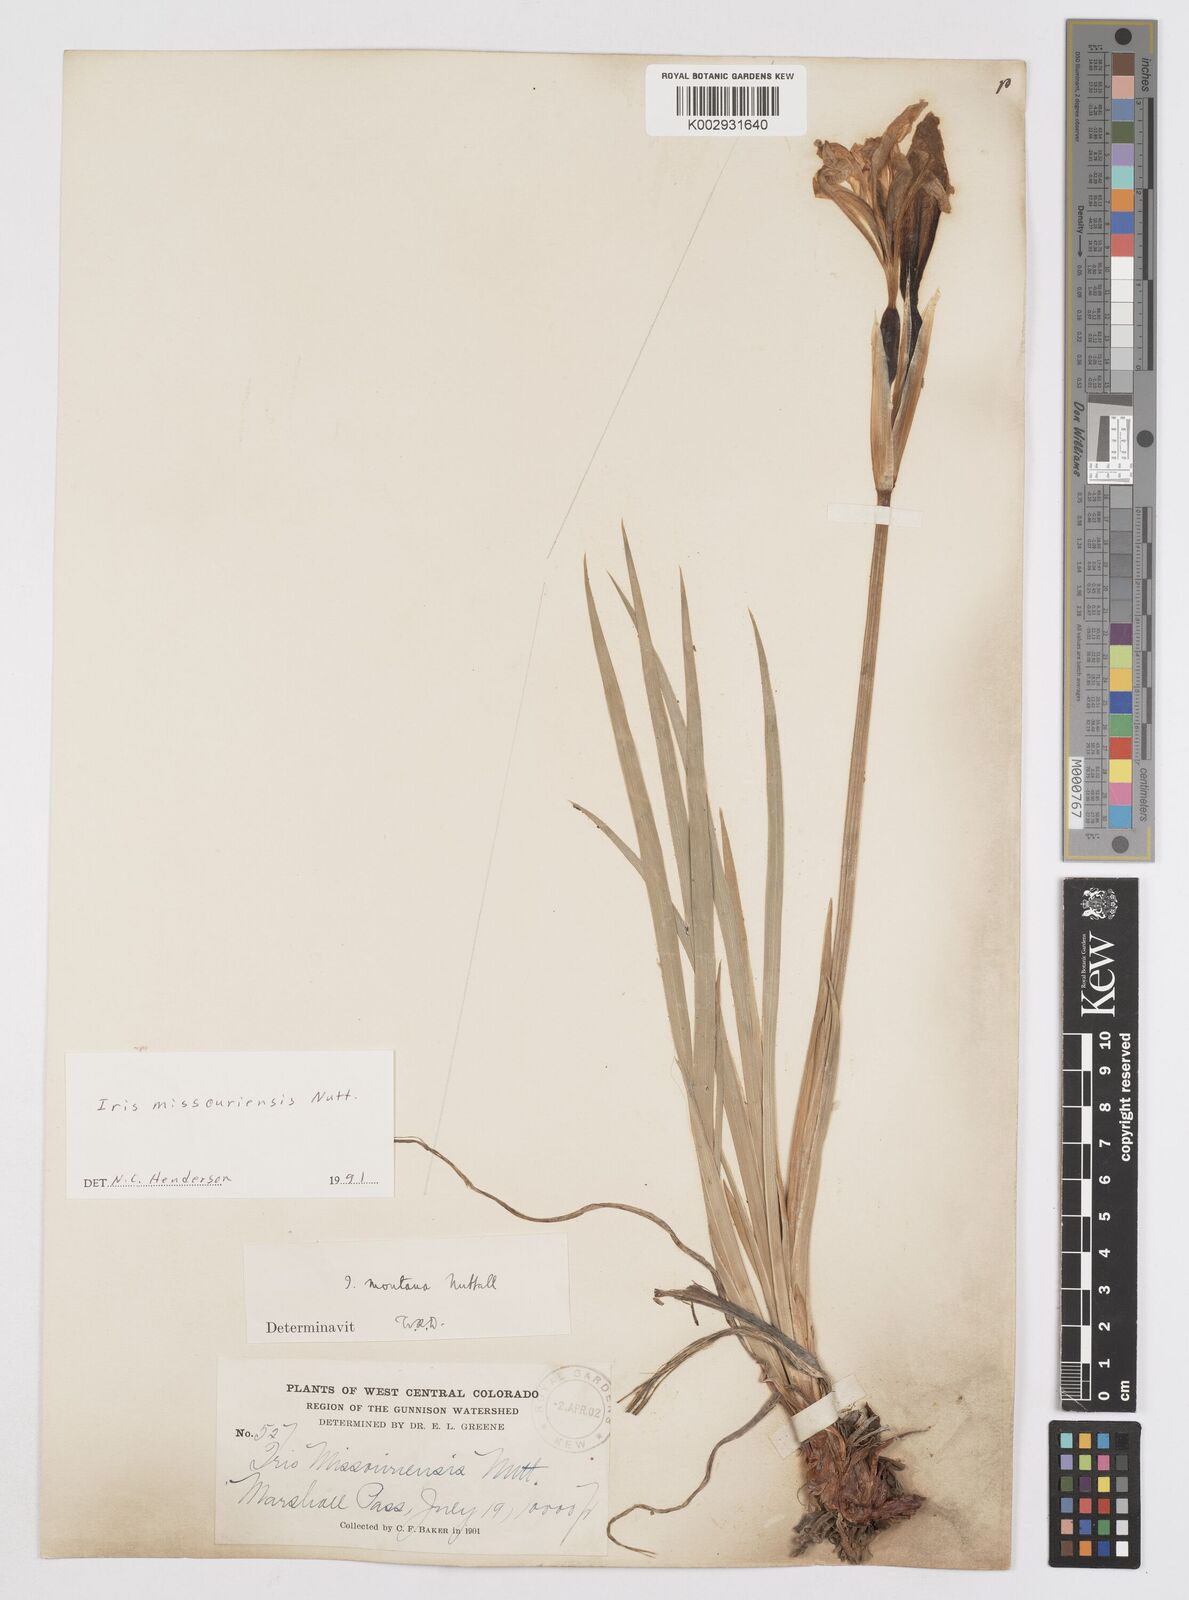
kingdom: Plantae
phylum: Tracheophyta
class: Liliopsida
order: Asparagales
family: Iridaceae
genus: Iris
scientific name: Iris missouriensis
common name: Rocky mountain iris
